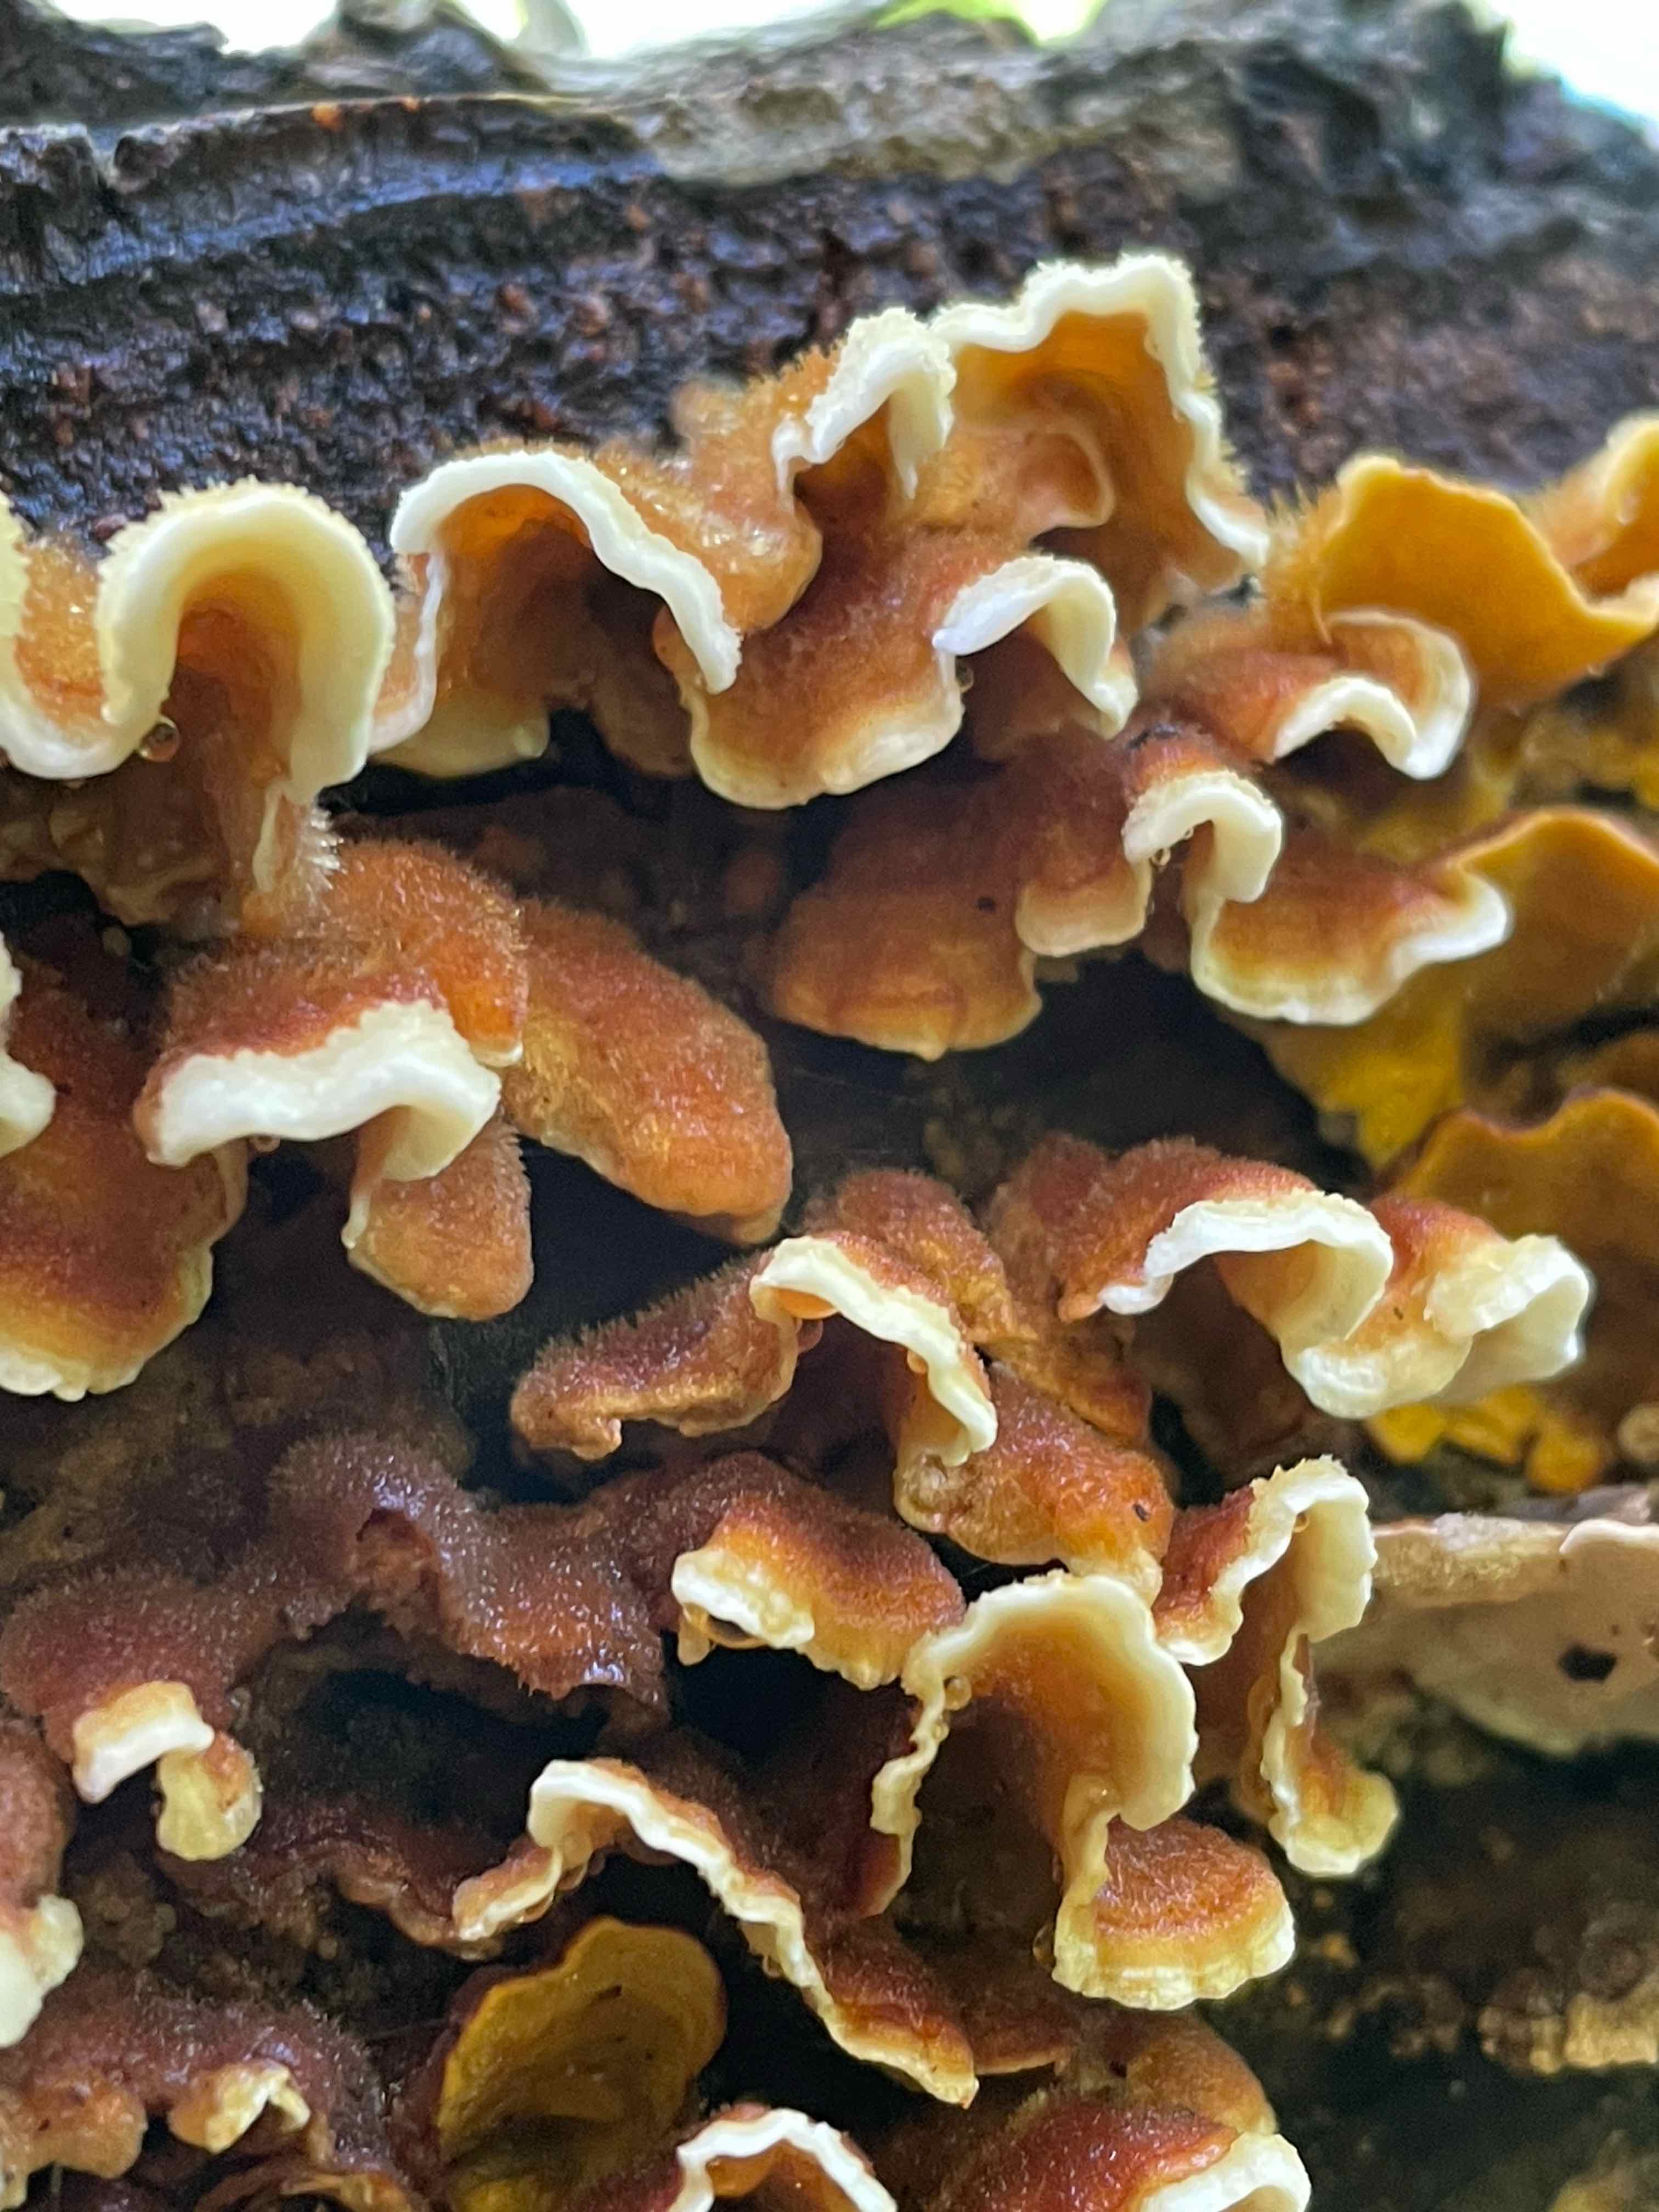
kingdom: Fungi
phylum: Basidiomycota
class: Agaricomycetes
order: Russulales
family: Stereaceae
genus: Stereum
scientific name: Stereum hirsutum
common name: håret lædersvamp
